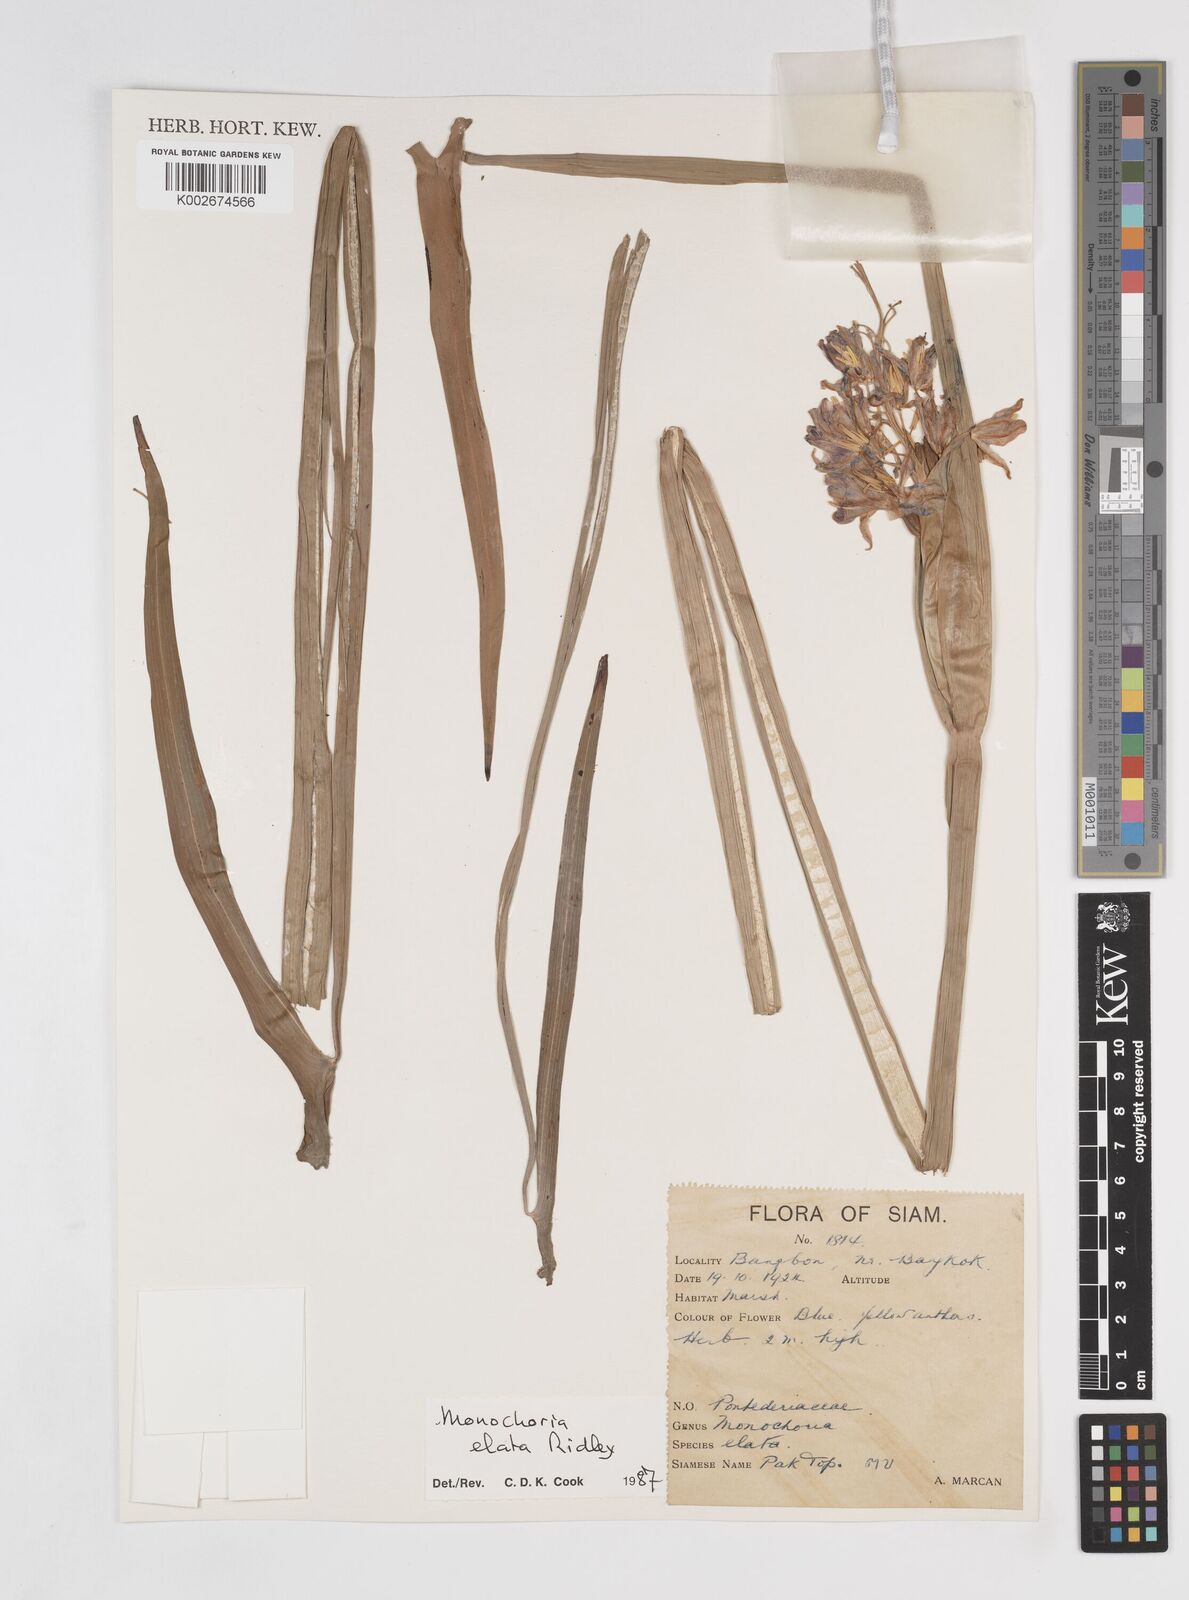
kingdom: Plantae
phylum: Tracheophyta
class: Liliopsida
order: Commelinales
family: Pontederiaceae
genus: Pontederia
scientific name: Pontederia elata
